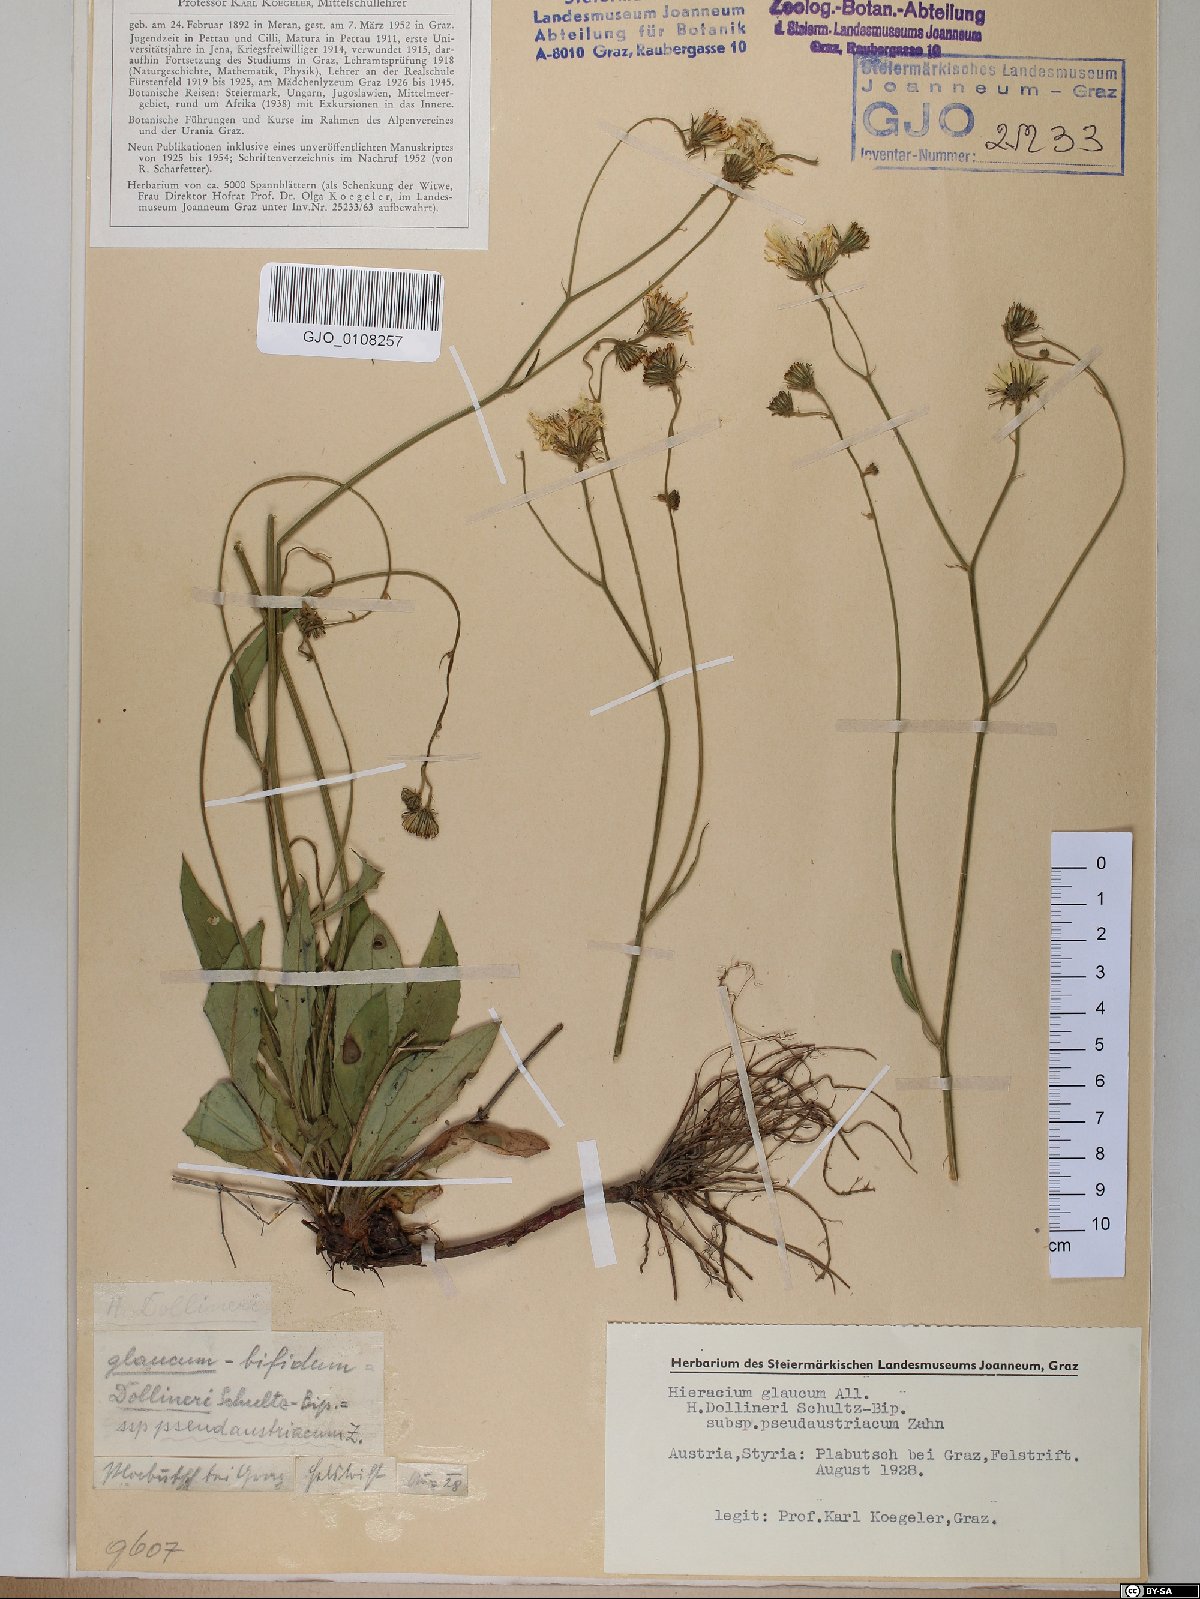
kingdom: Plantae
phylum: Tracheophyta
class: Magnoliopsida
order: Asterales
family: Asteraceae
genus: Hieracium
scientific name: Hieracium dollineri
